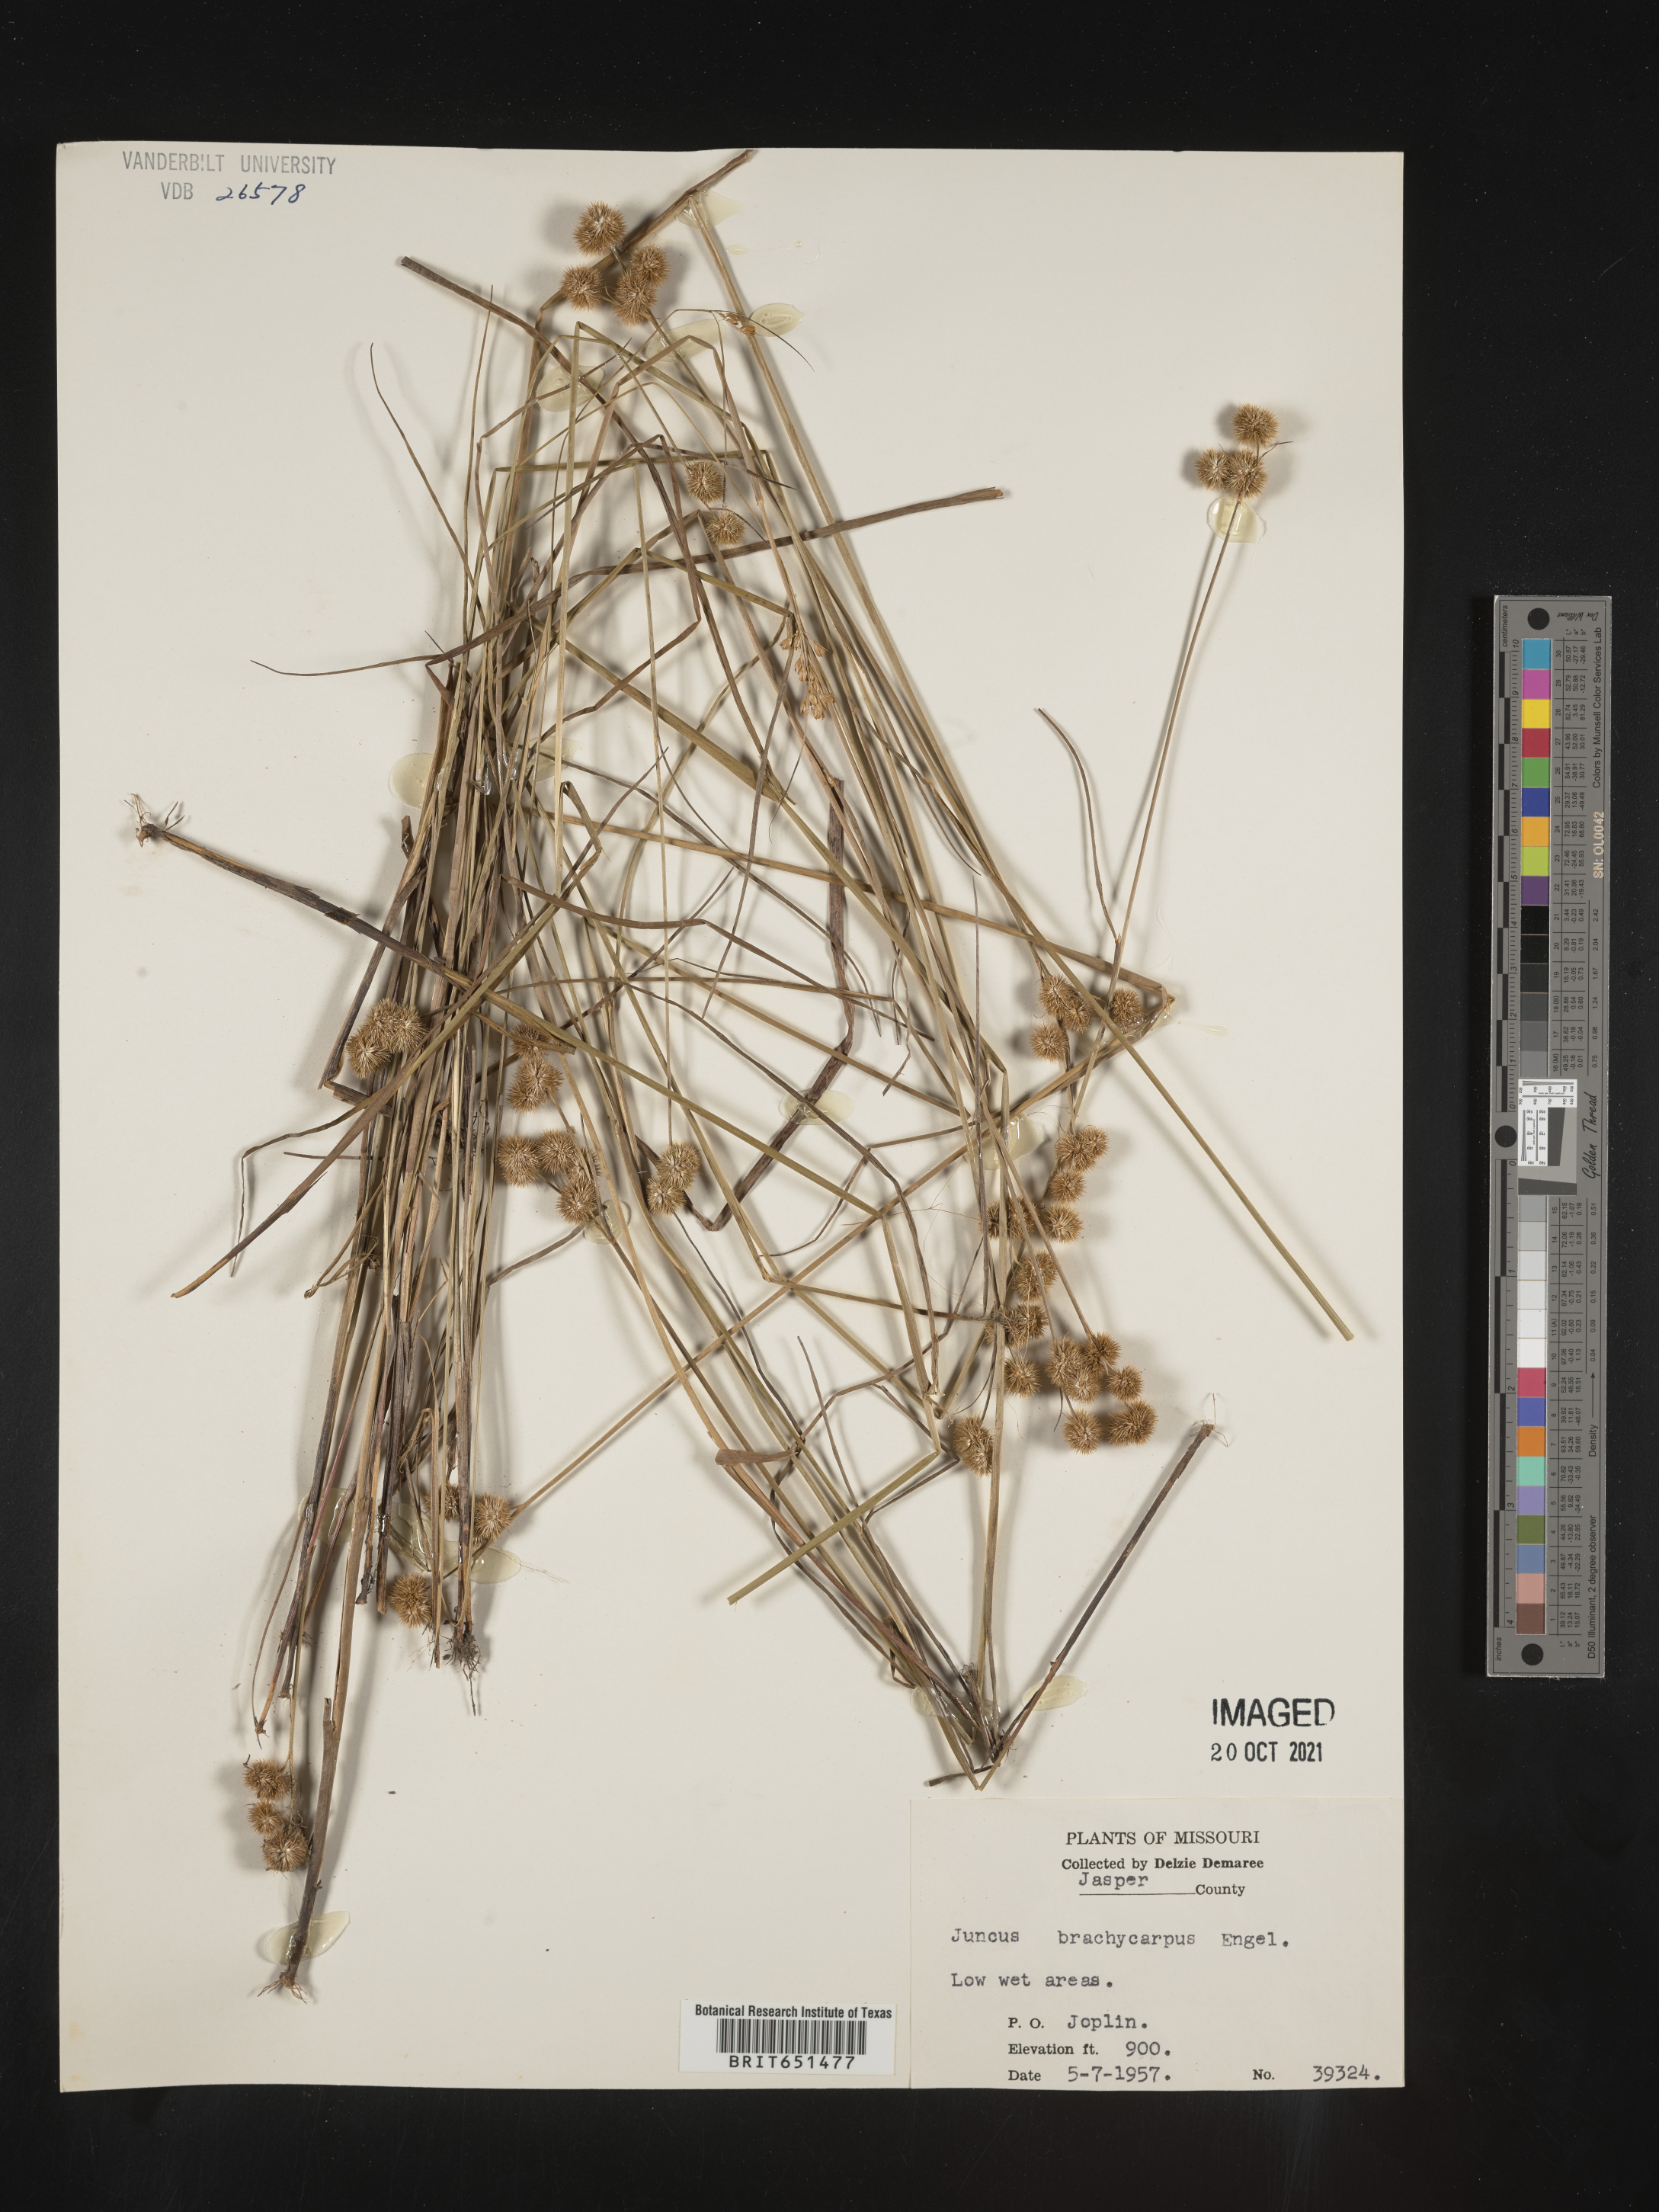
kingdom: Plantae
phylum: Tracheophyta
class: Liliopsida
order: Poales
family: Juncaceae
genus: Juncus
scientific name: Juncus brachycarpus
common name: Shore rush
